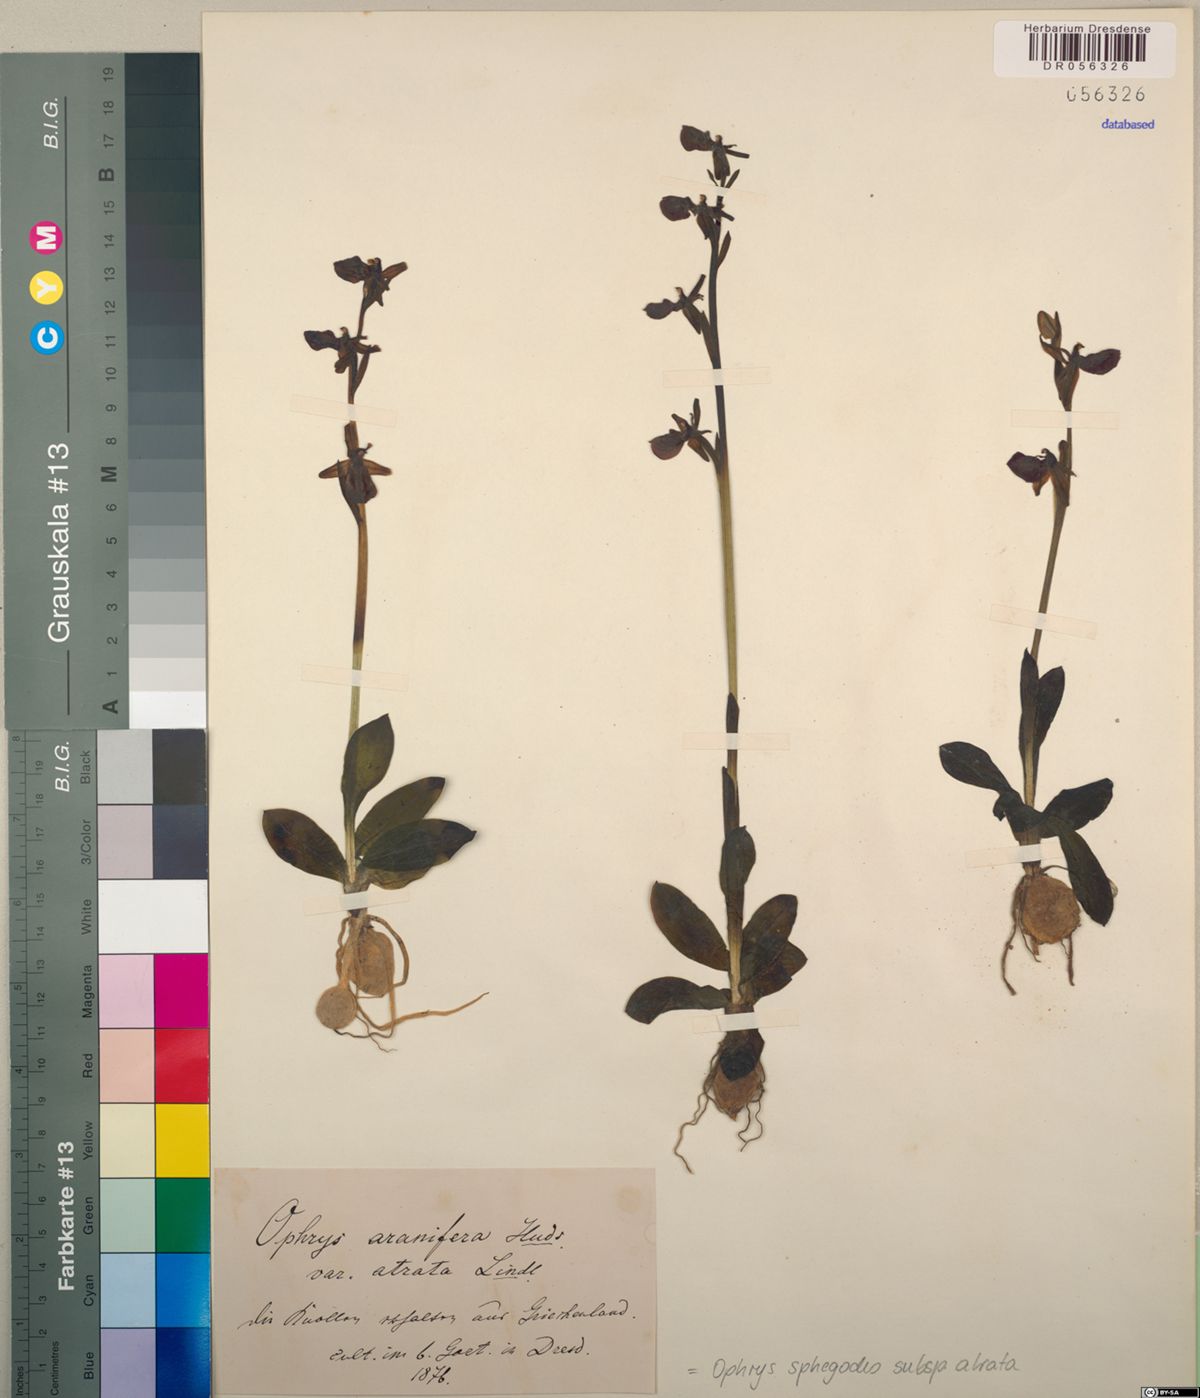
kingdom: Plantae
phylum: Tracheophyta
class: Liliopsida
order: Asparagales
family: Orchidaceae
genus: Ophrys
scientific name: Ophrys sphegodes
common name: Early spider-orchid
